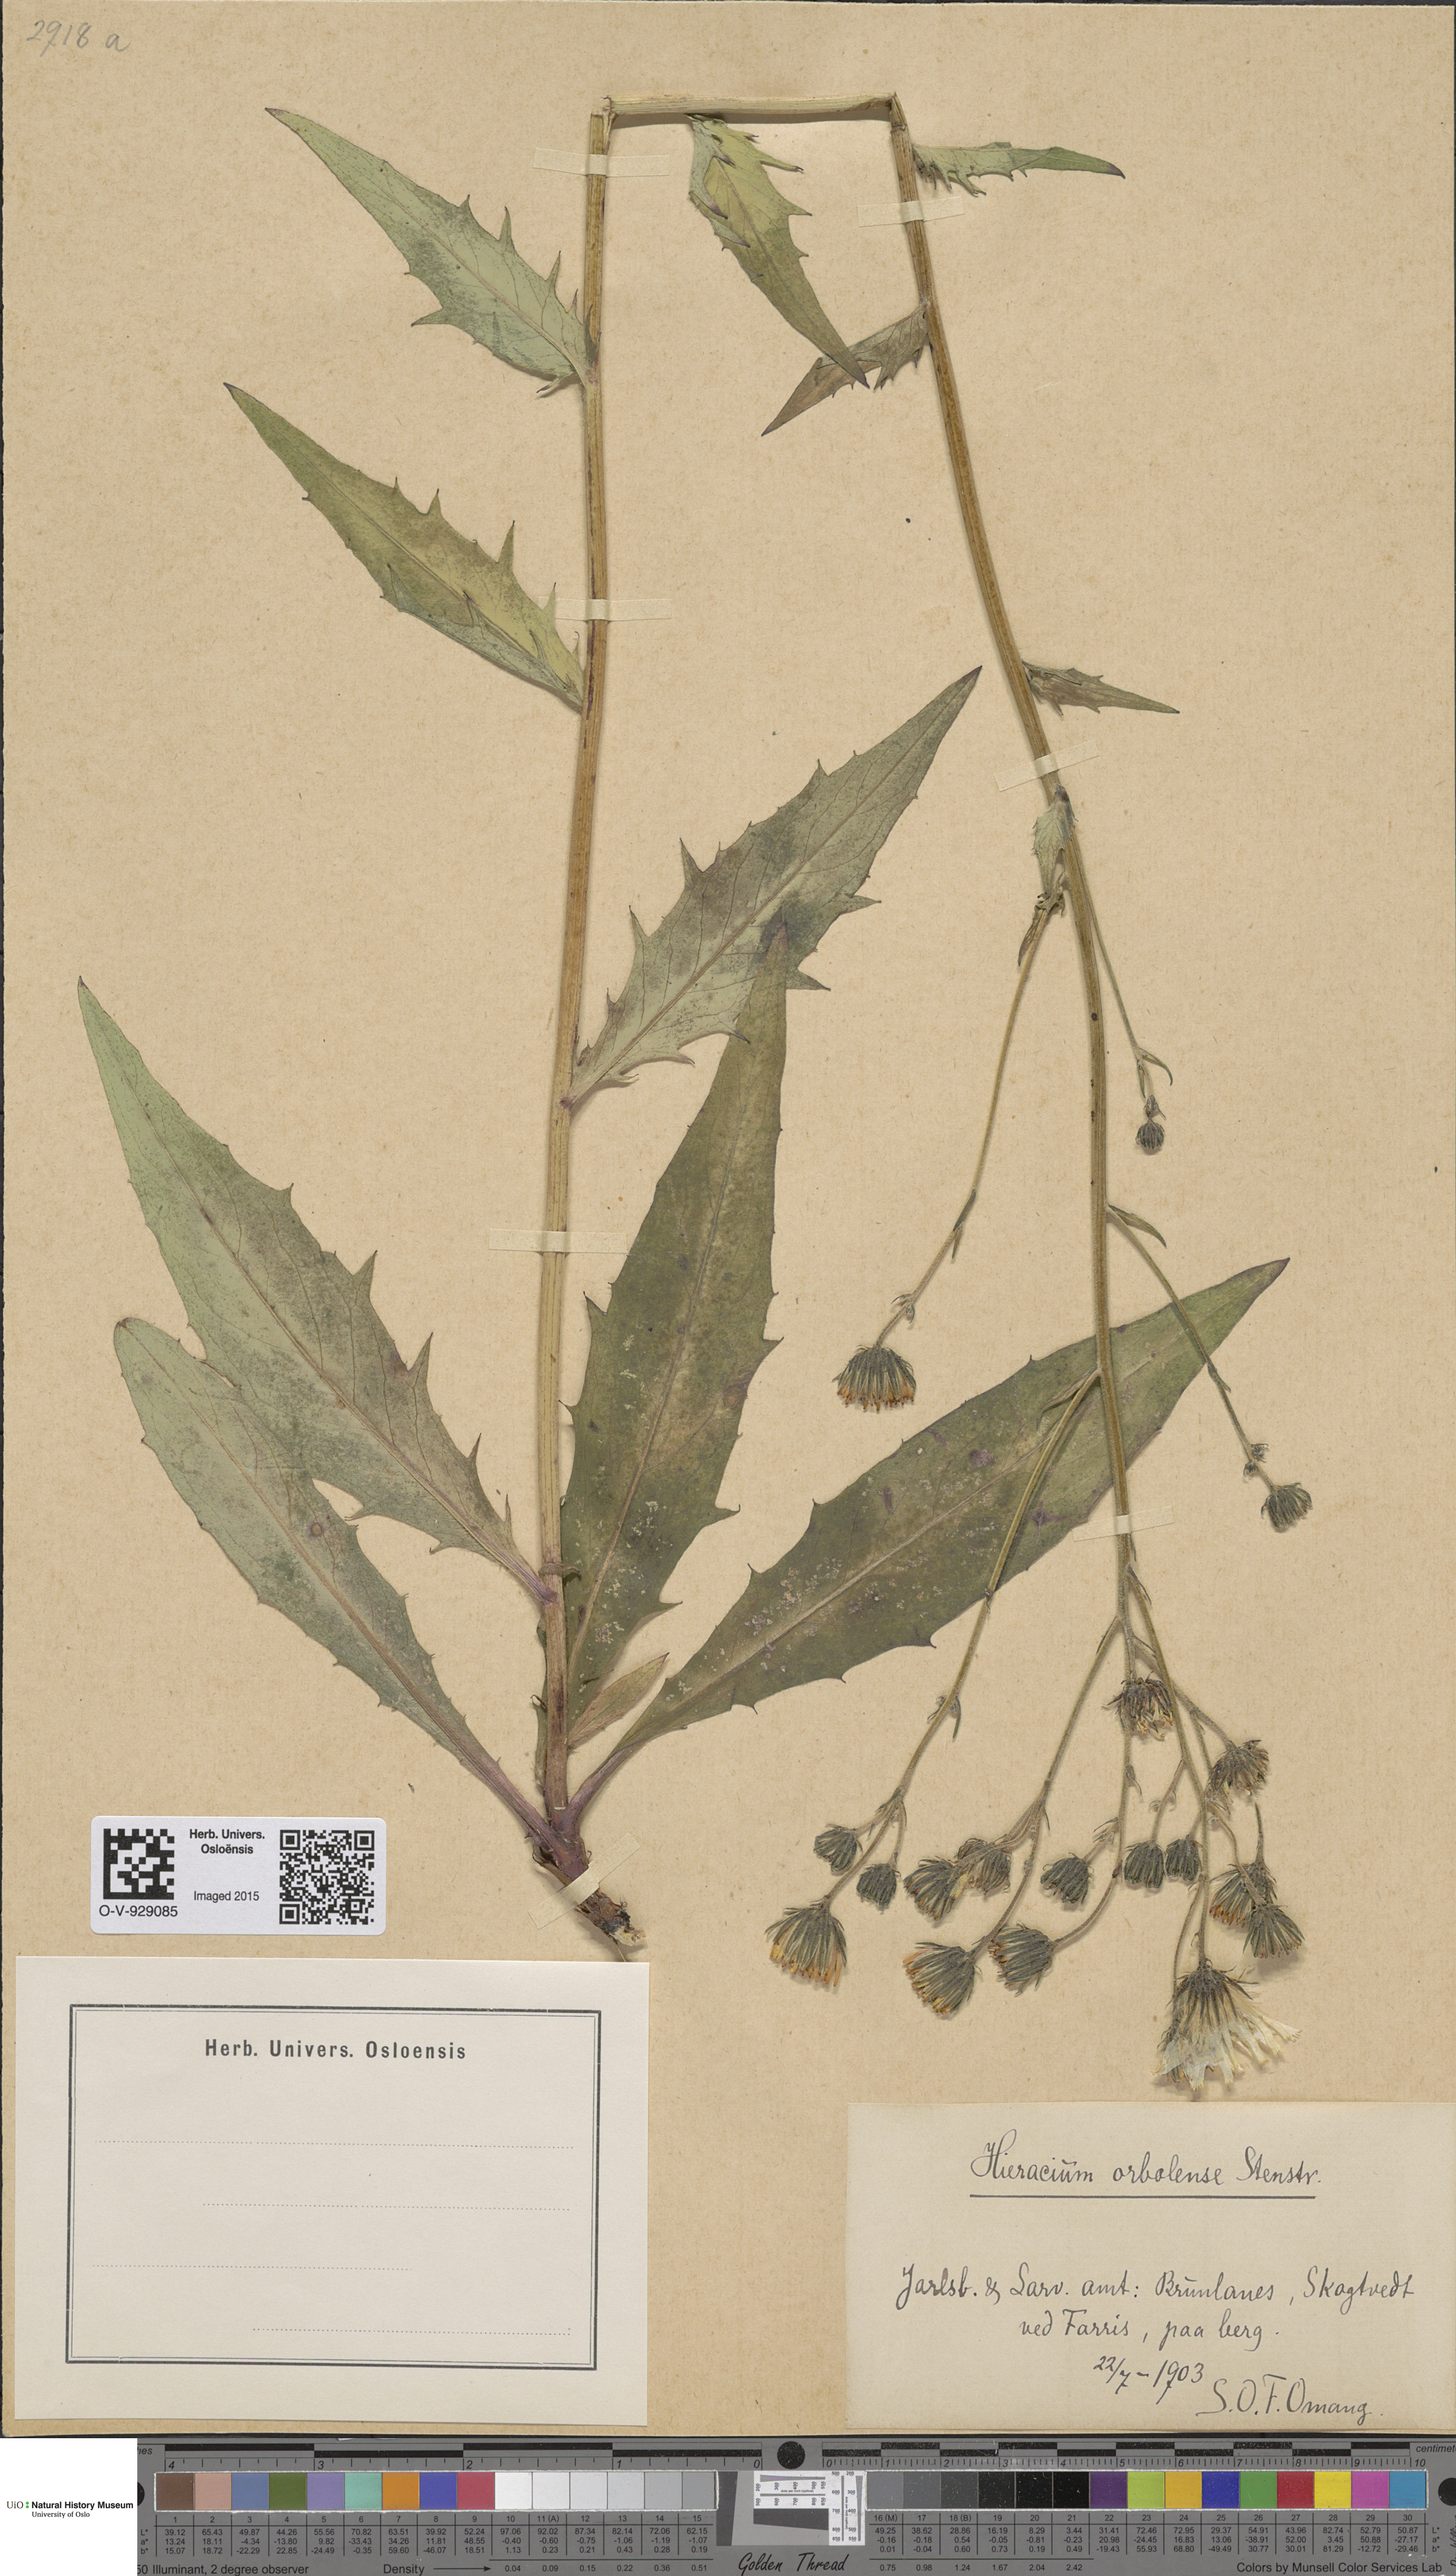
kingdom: Plantae
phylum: Tracheophyta
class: Magnoliopsida
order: Asterales
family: Asteraceae
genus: Hieracium
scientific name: Hieracium orbolense
